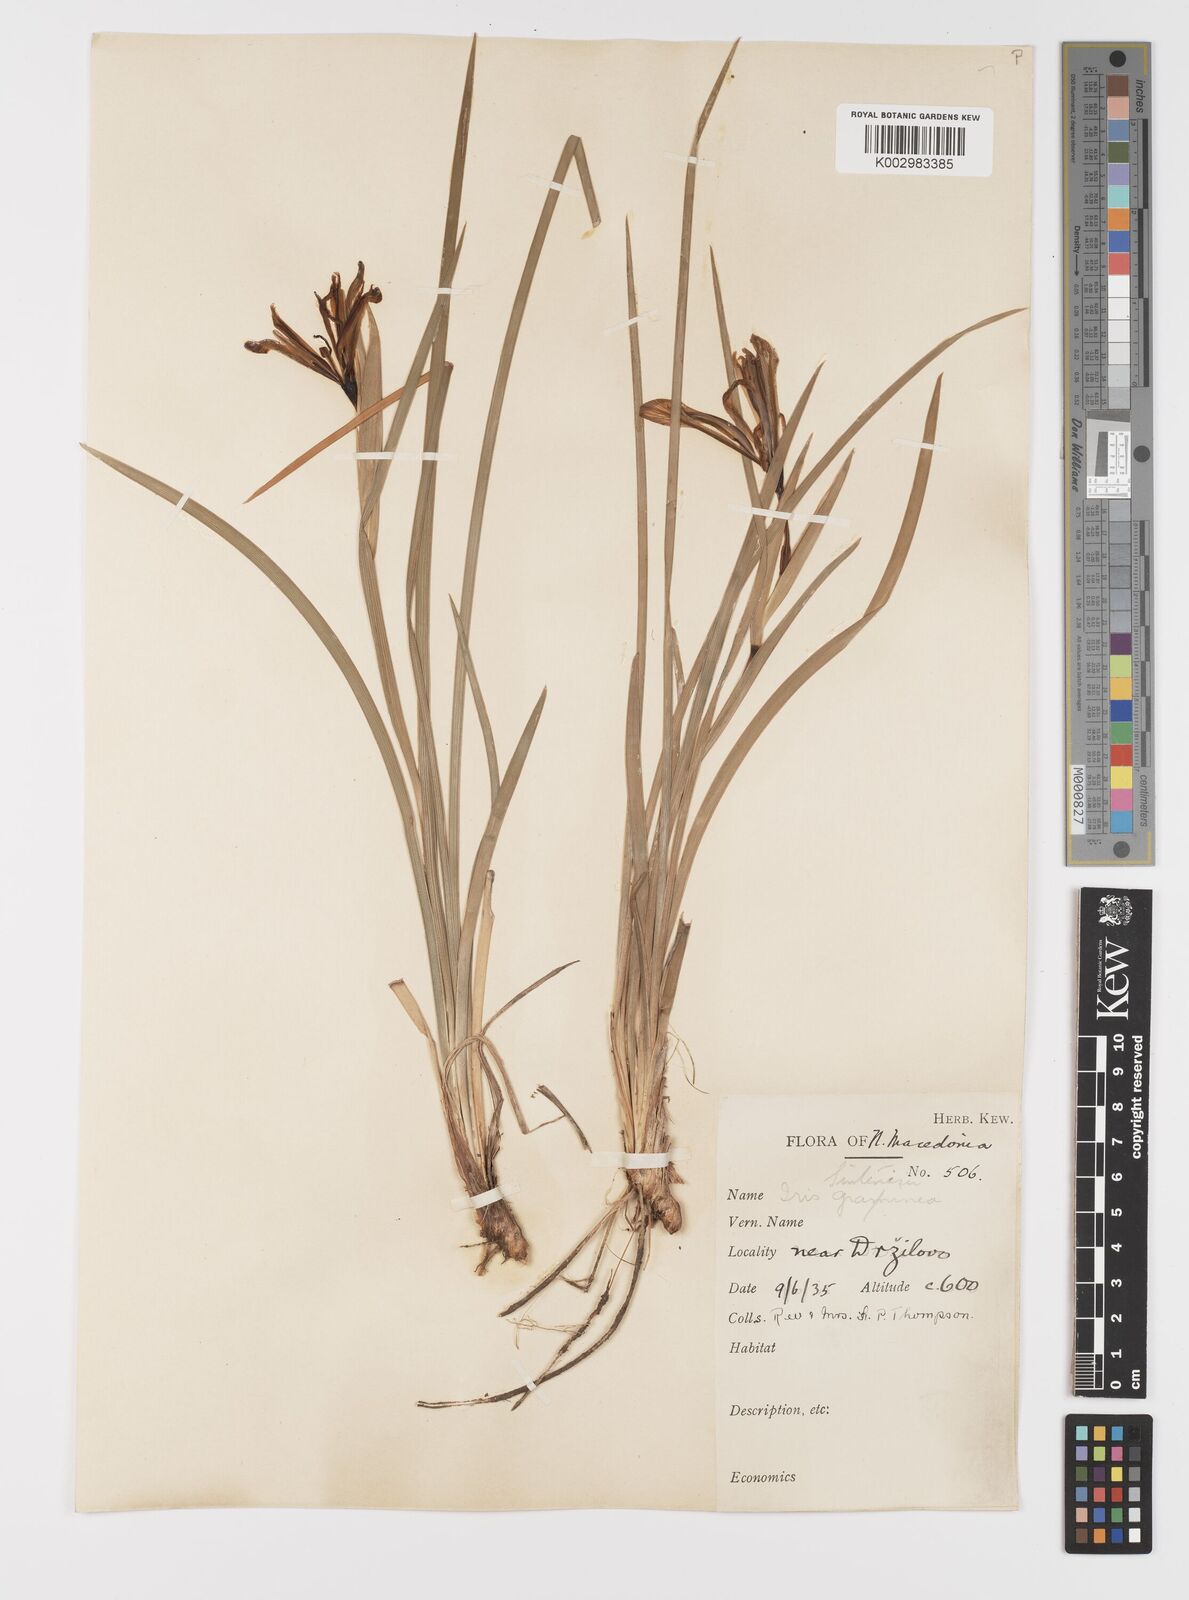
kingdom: Plantae
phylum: Tracheophyta
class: Liliopsida
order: Asparagales
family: Iridaceae
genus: Iris
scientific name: Iris sintenisii
